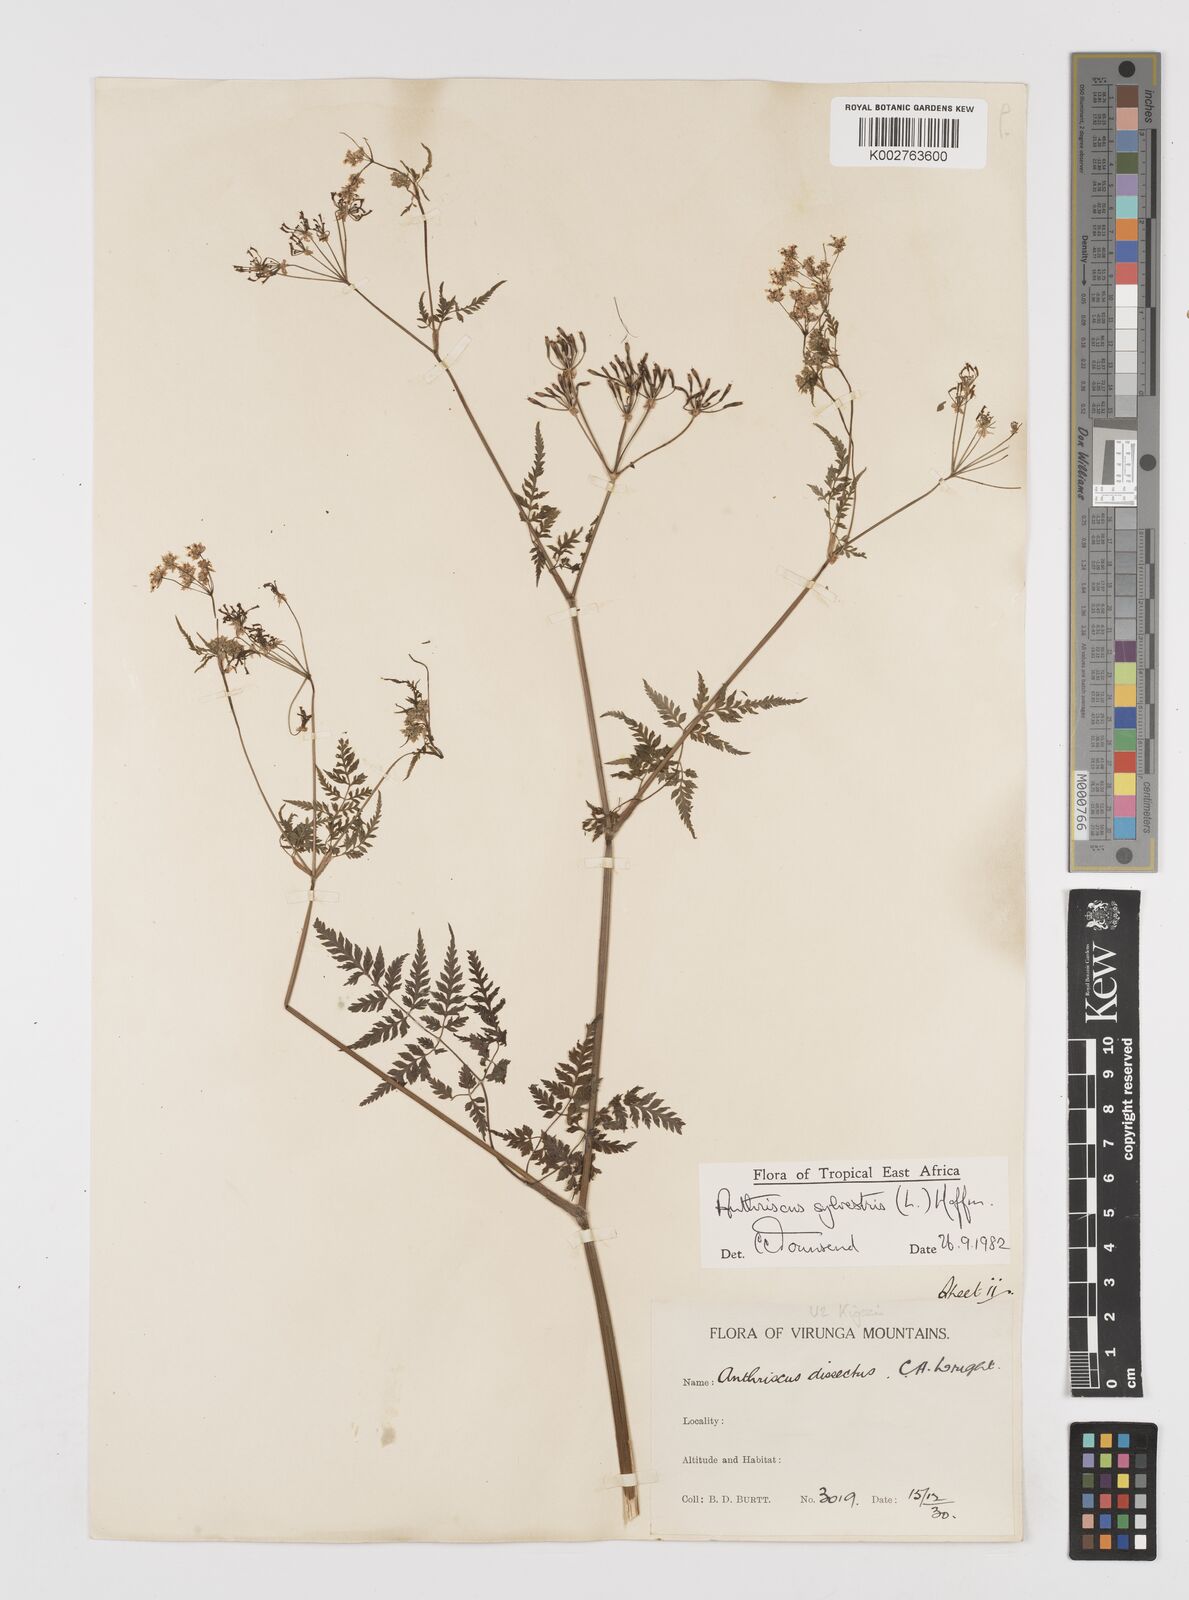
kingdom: Plantae
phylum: Tracheophyta
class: Magnoliopsida
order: Apiales
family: Apiaceae
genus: Anthriscus
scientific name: Anthriscus sylvestris
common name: Cow parsley
